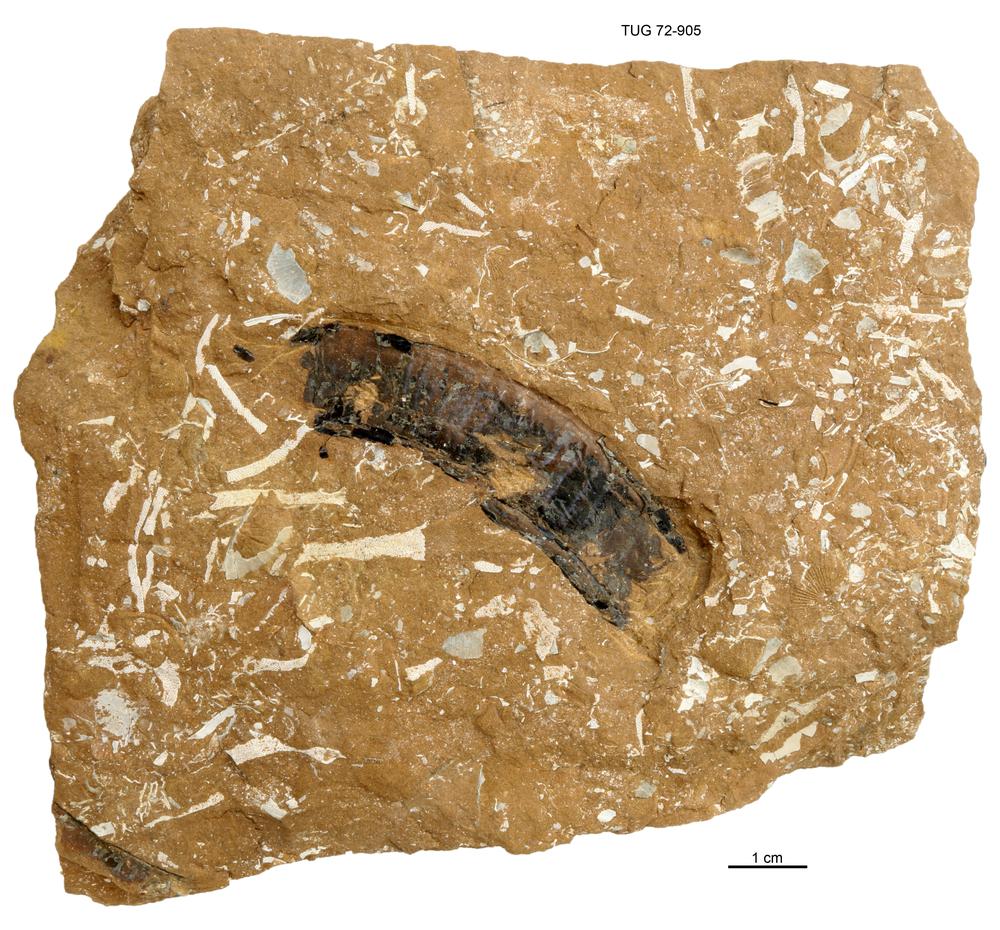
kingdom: Animalia
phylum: Cnidaria
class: Scyphozoa
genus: Sphenothallus
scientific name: Sphenothallus
